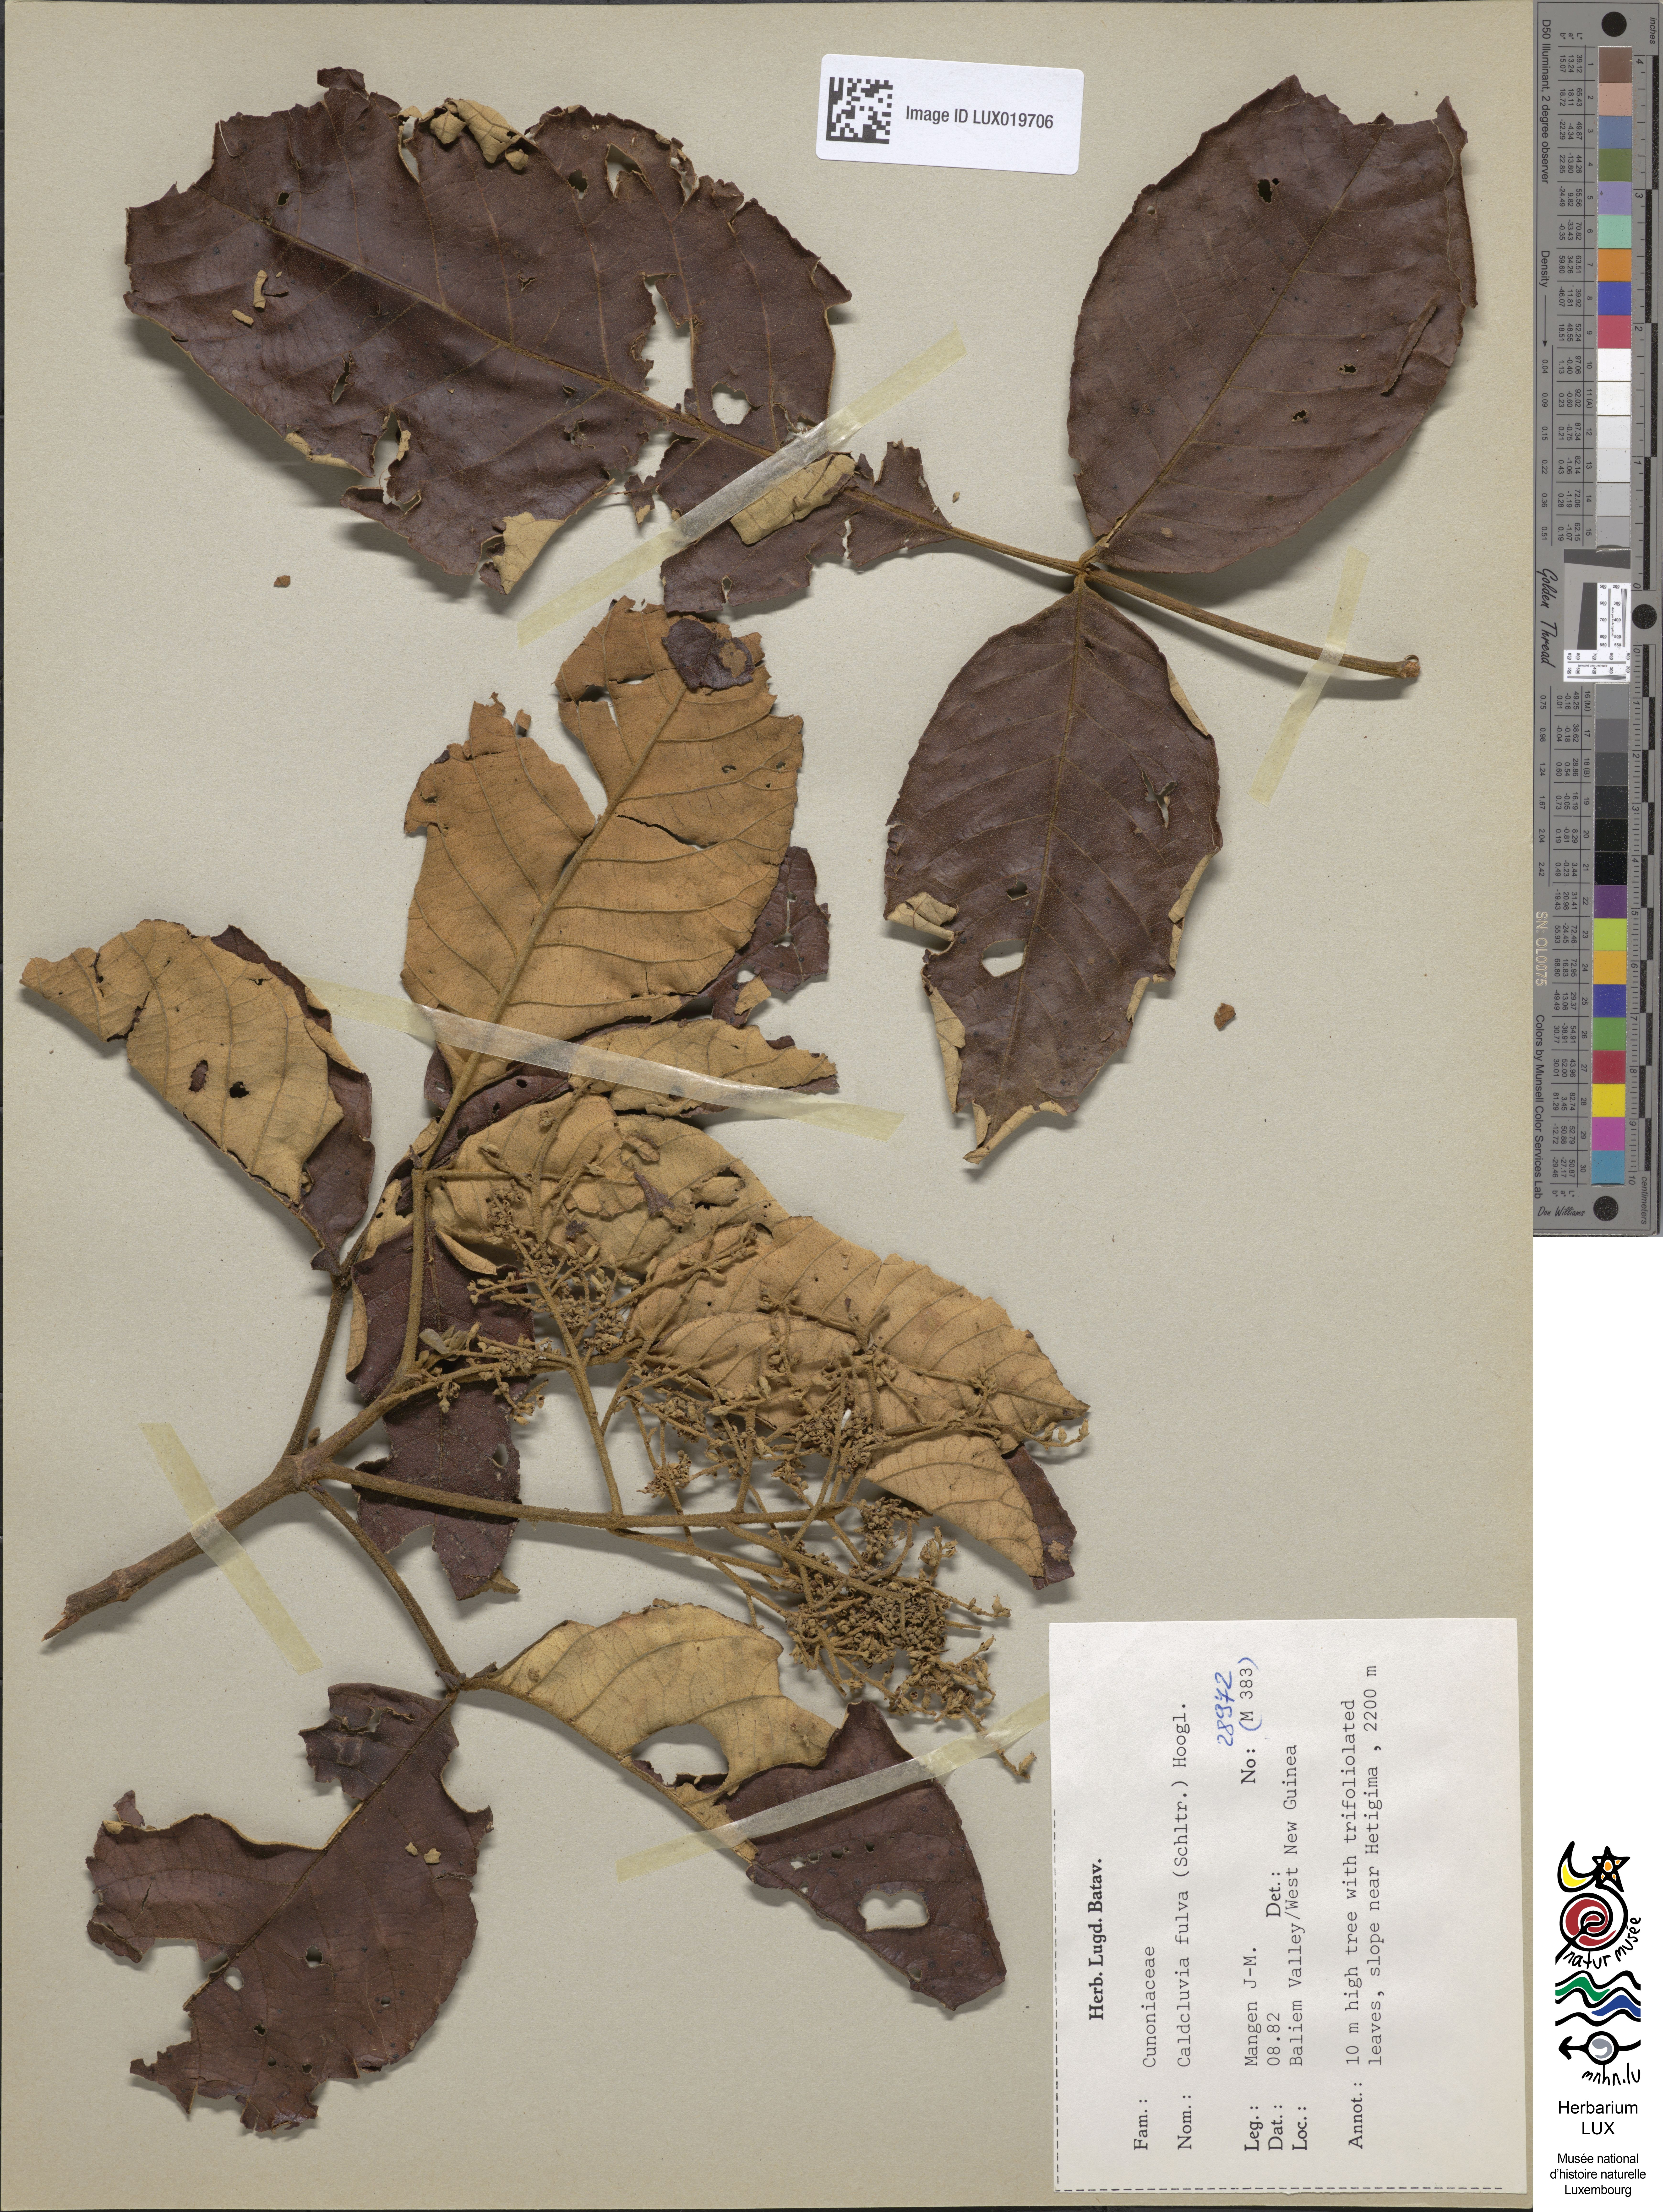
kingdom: Plantae
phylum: Tracheophyta
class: Magnoliopsida
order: Oxalidales
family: Cunoniaceae
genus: Ackama
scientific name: Ackama fulva
